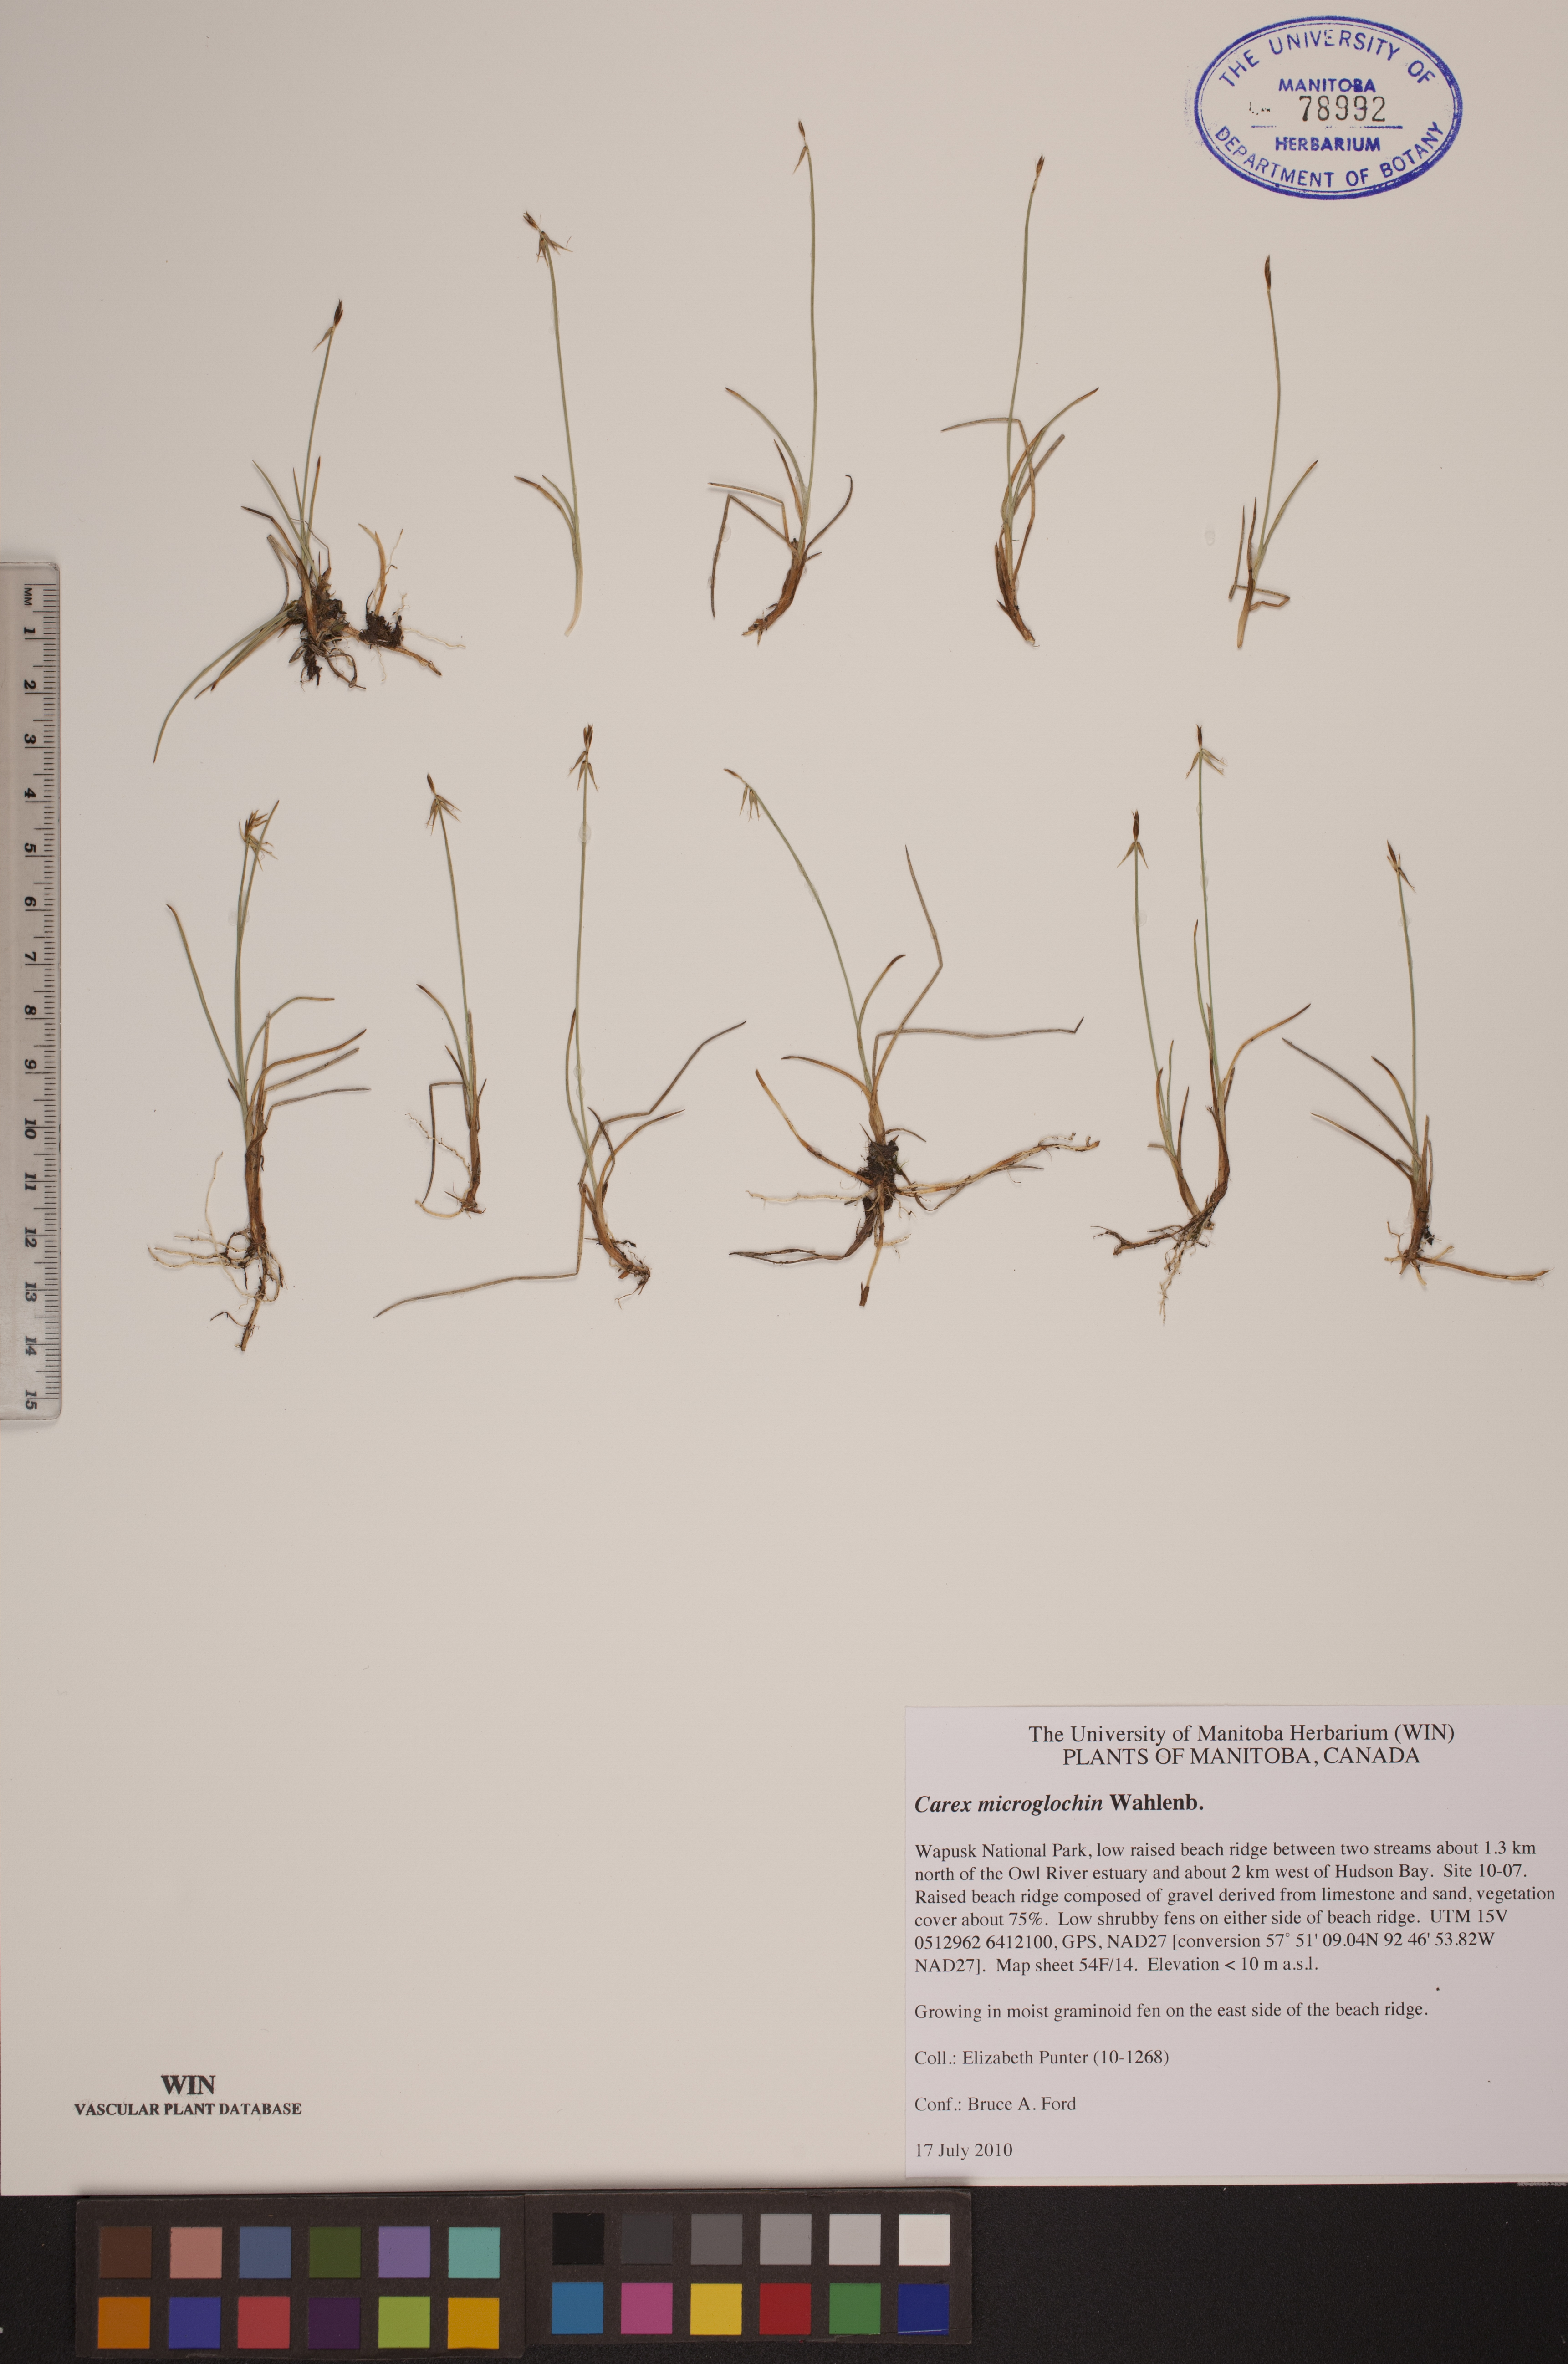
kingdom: Plantae
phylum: Tracheophyta
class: Liliopsida
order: Poales
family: Cyperaceae
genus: Carex
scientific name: Carex microglochin
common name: Bristle sedge
